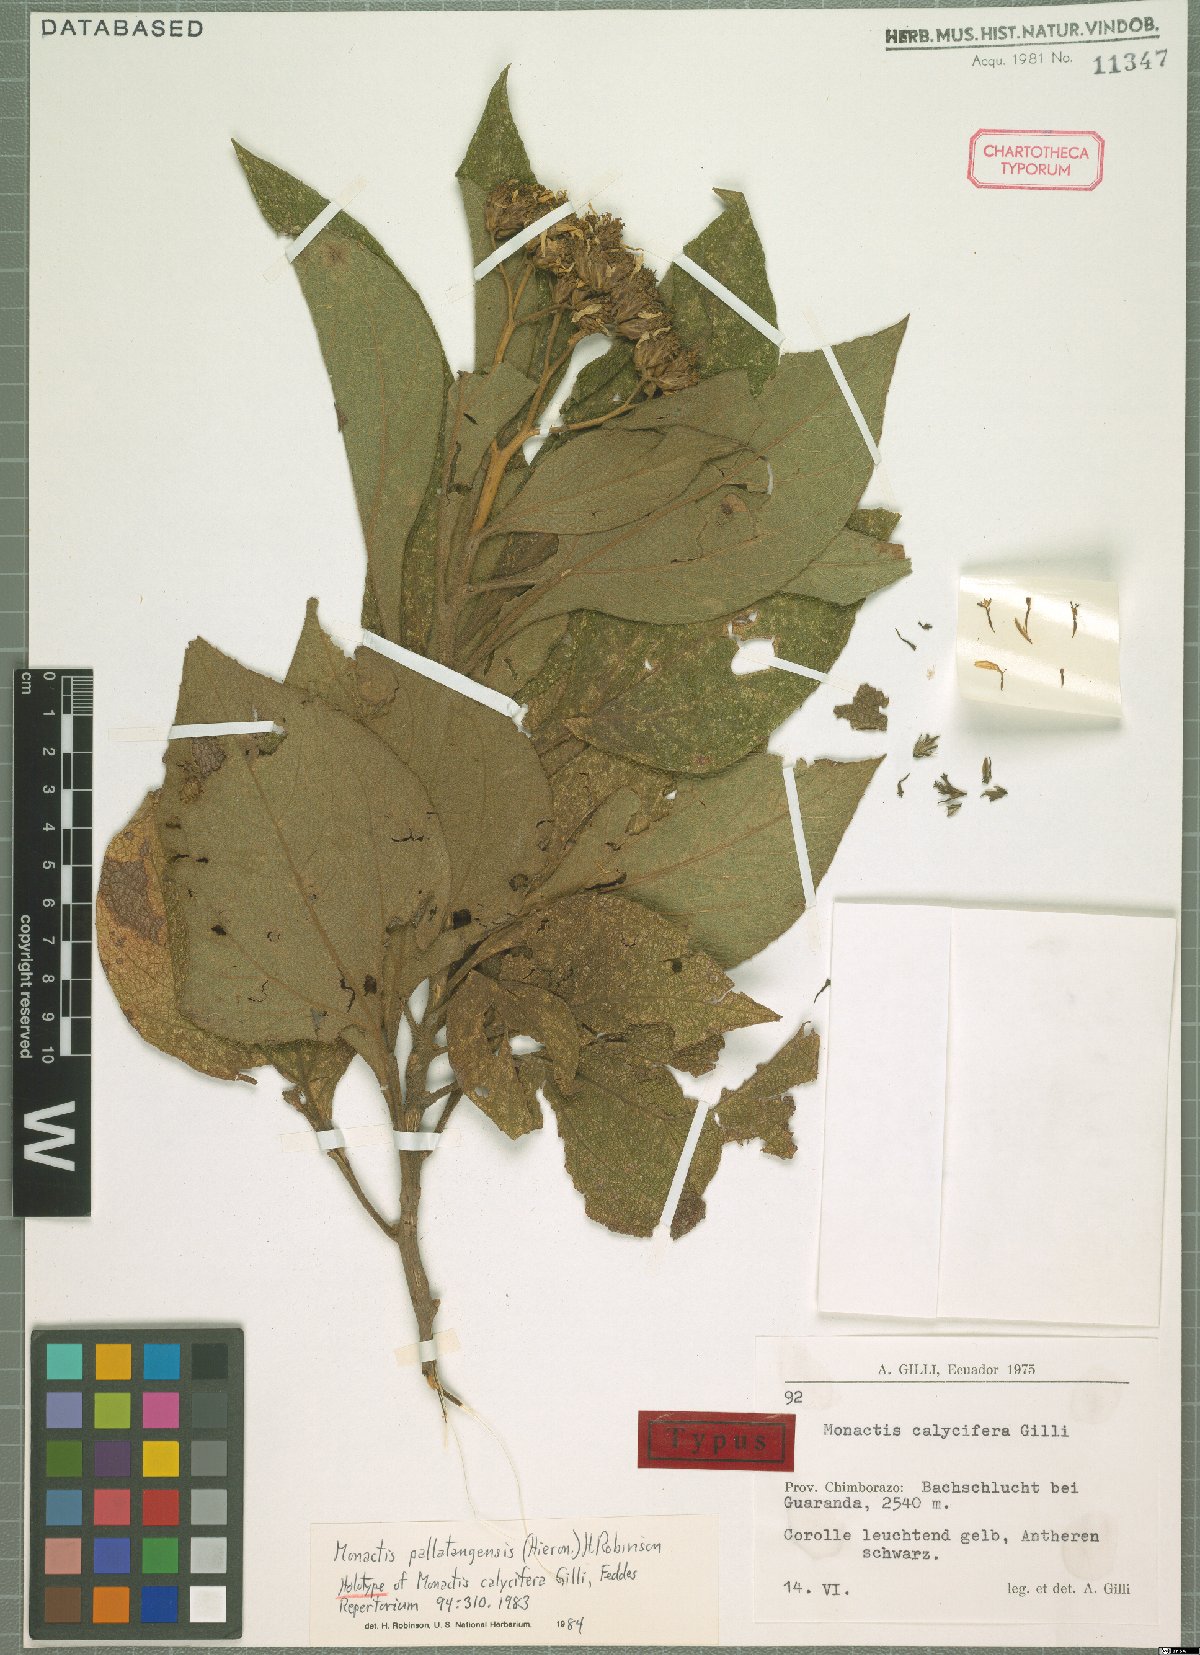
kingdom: Plantae
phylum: Tracheophyta
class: Magnoliopsida
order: Asterales
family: Asteraceae
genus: Monactis
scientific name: Monactis pallatangensis
